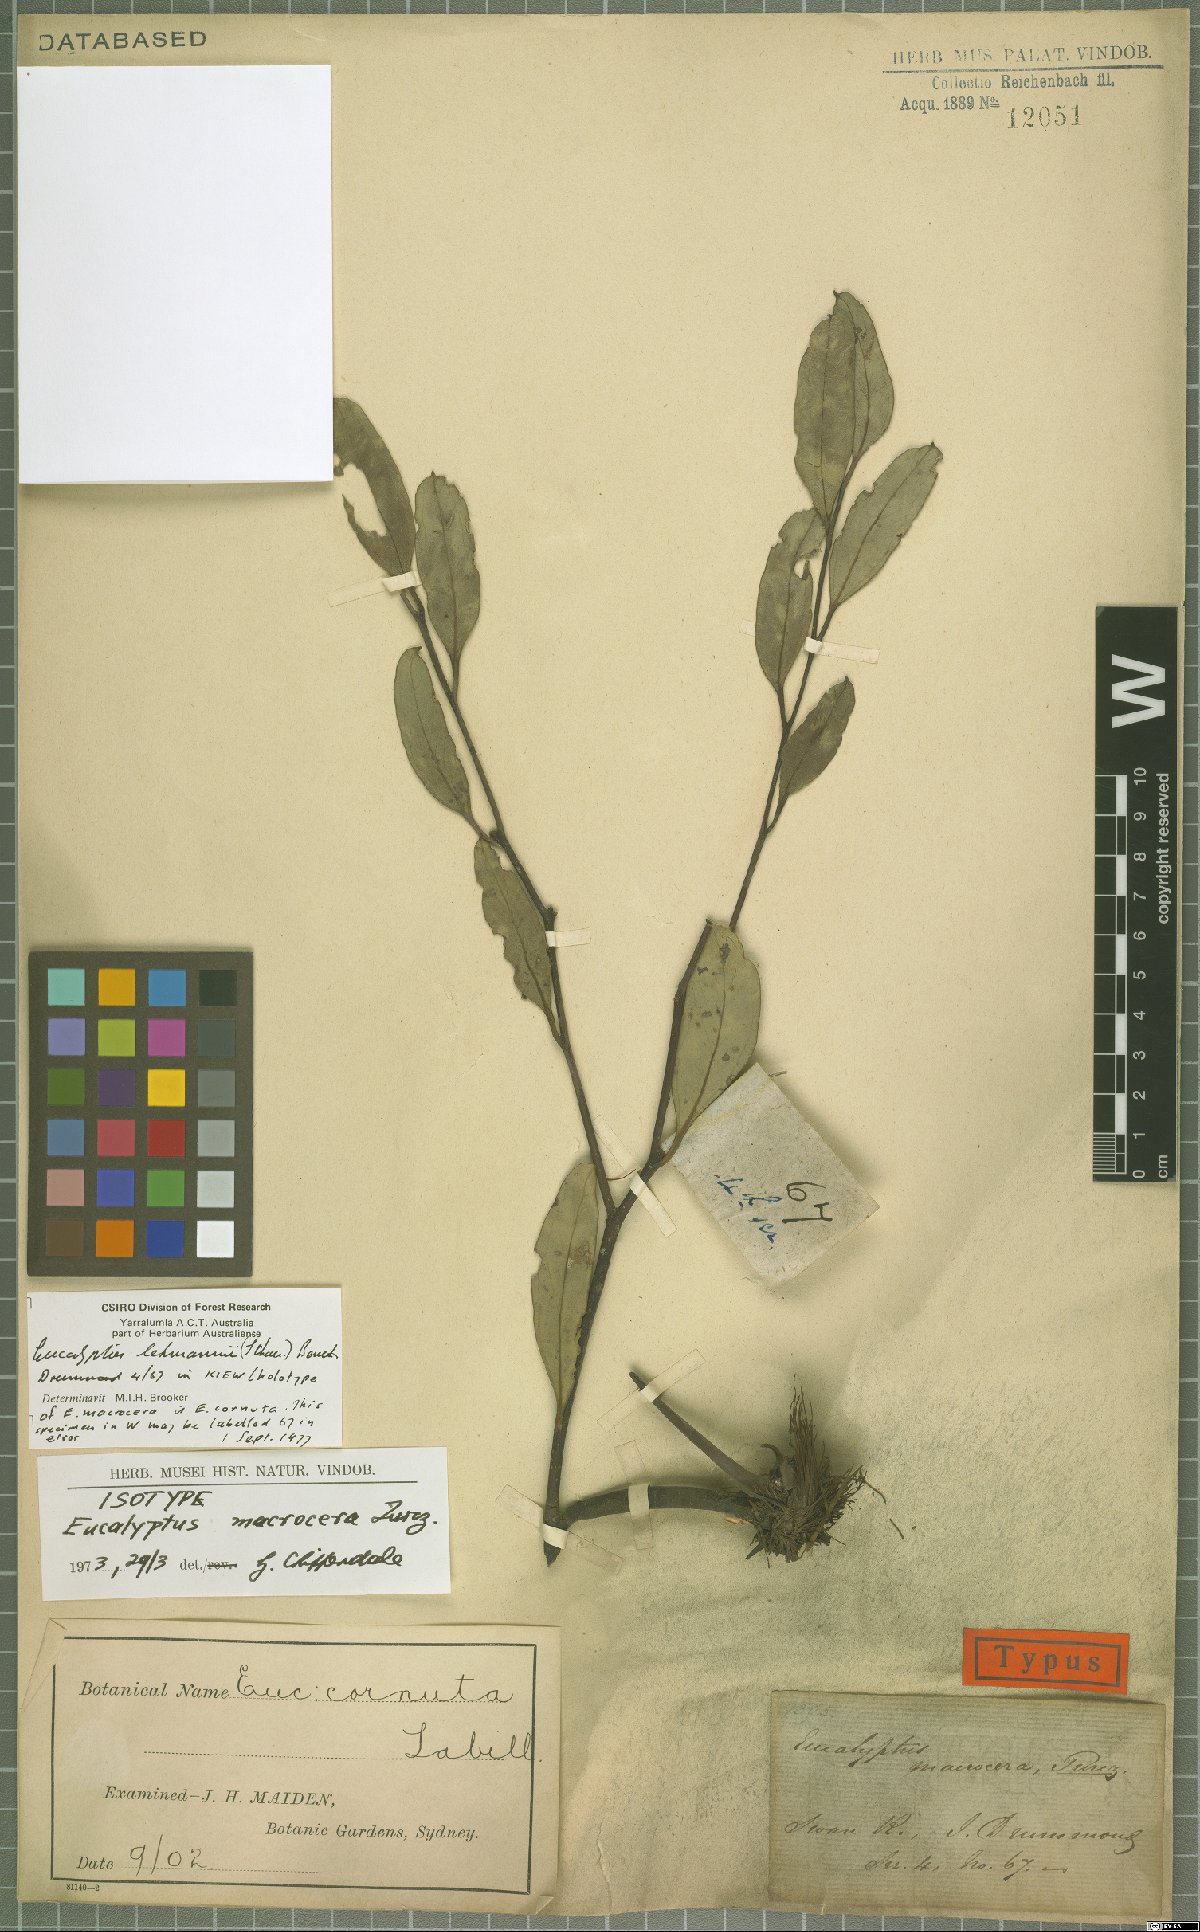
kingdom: Plantae
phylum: Tracheophyta
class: Magnoliopsida
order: Myrtales
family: Myrtaceae
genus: Eucalyptus
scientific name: Eucalyptus lehmannii
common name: Bushy yate
